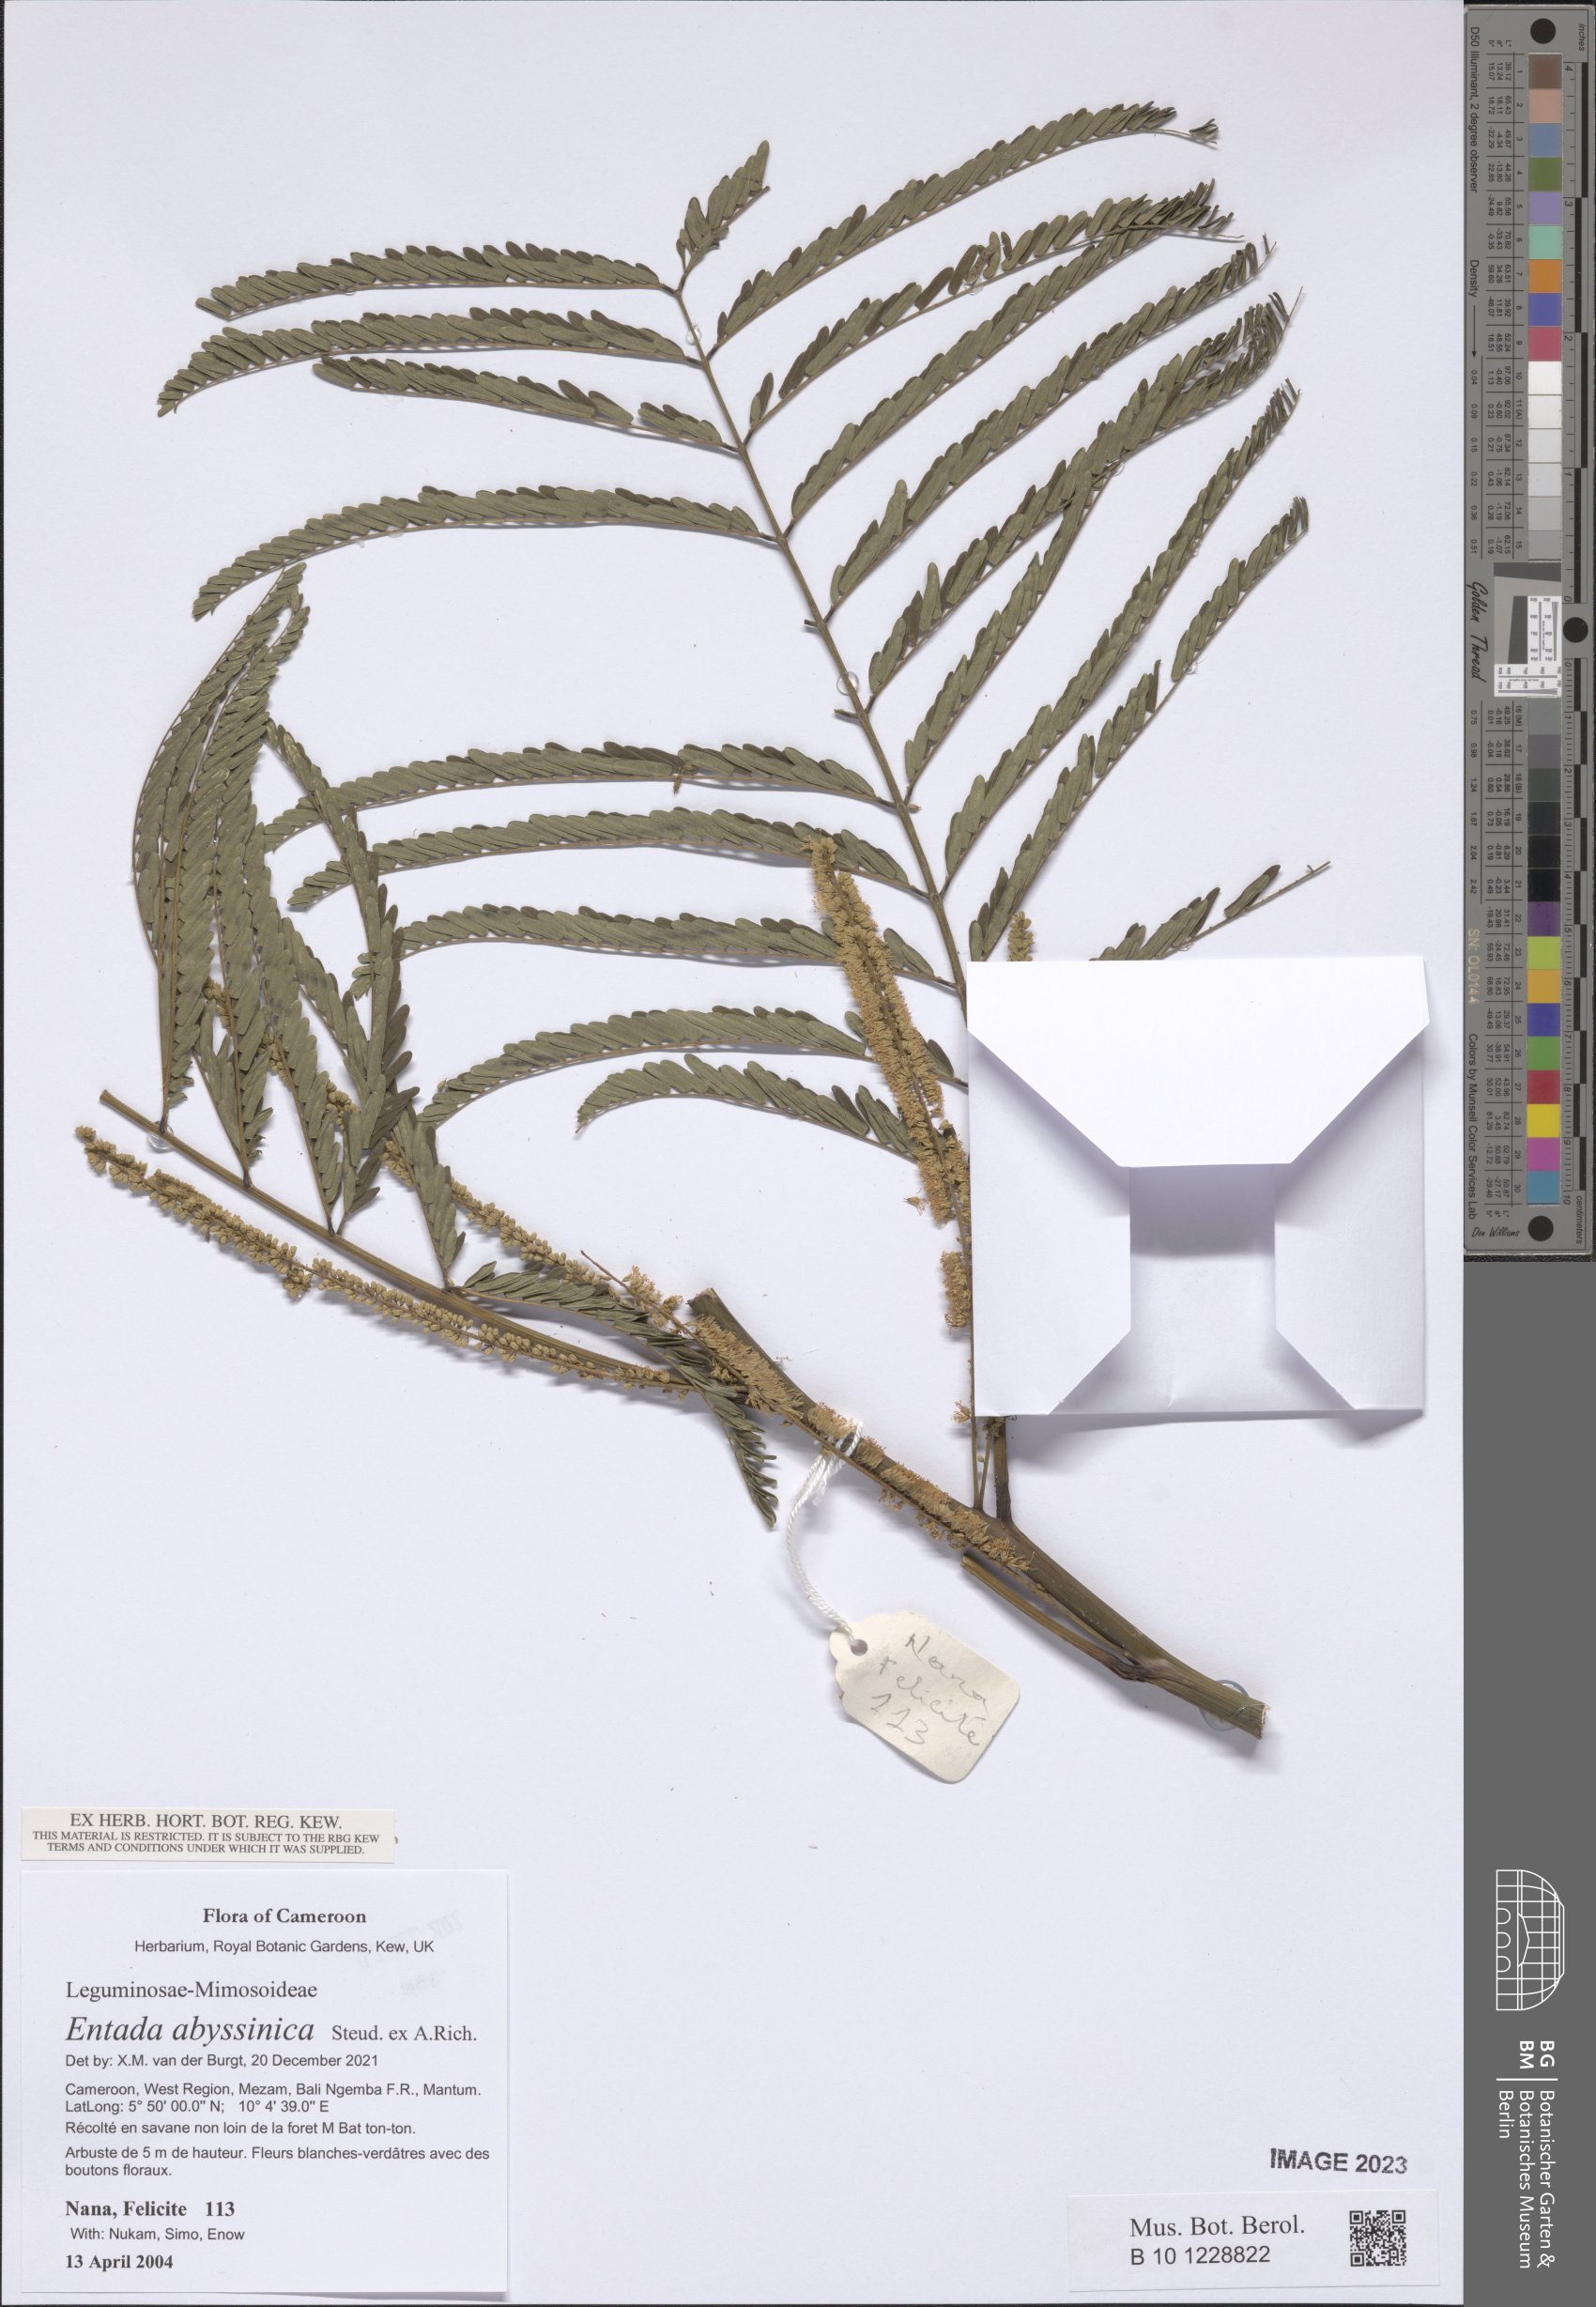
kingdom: Plantae
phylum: Tracheophyta
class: Magnoliopsida
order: Fabales
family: Fabaceae
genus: Entada
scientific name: Entada abyssinica
